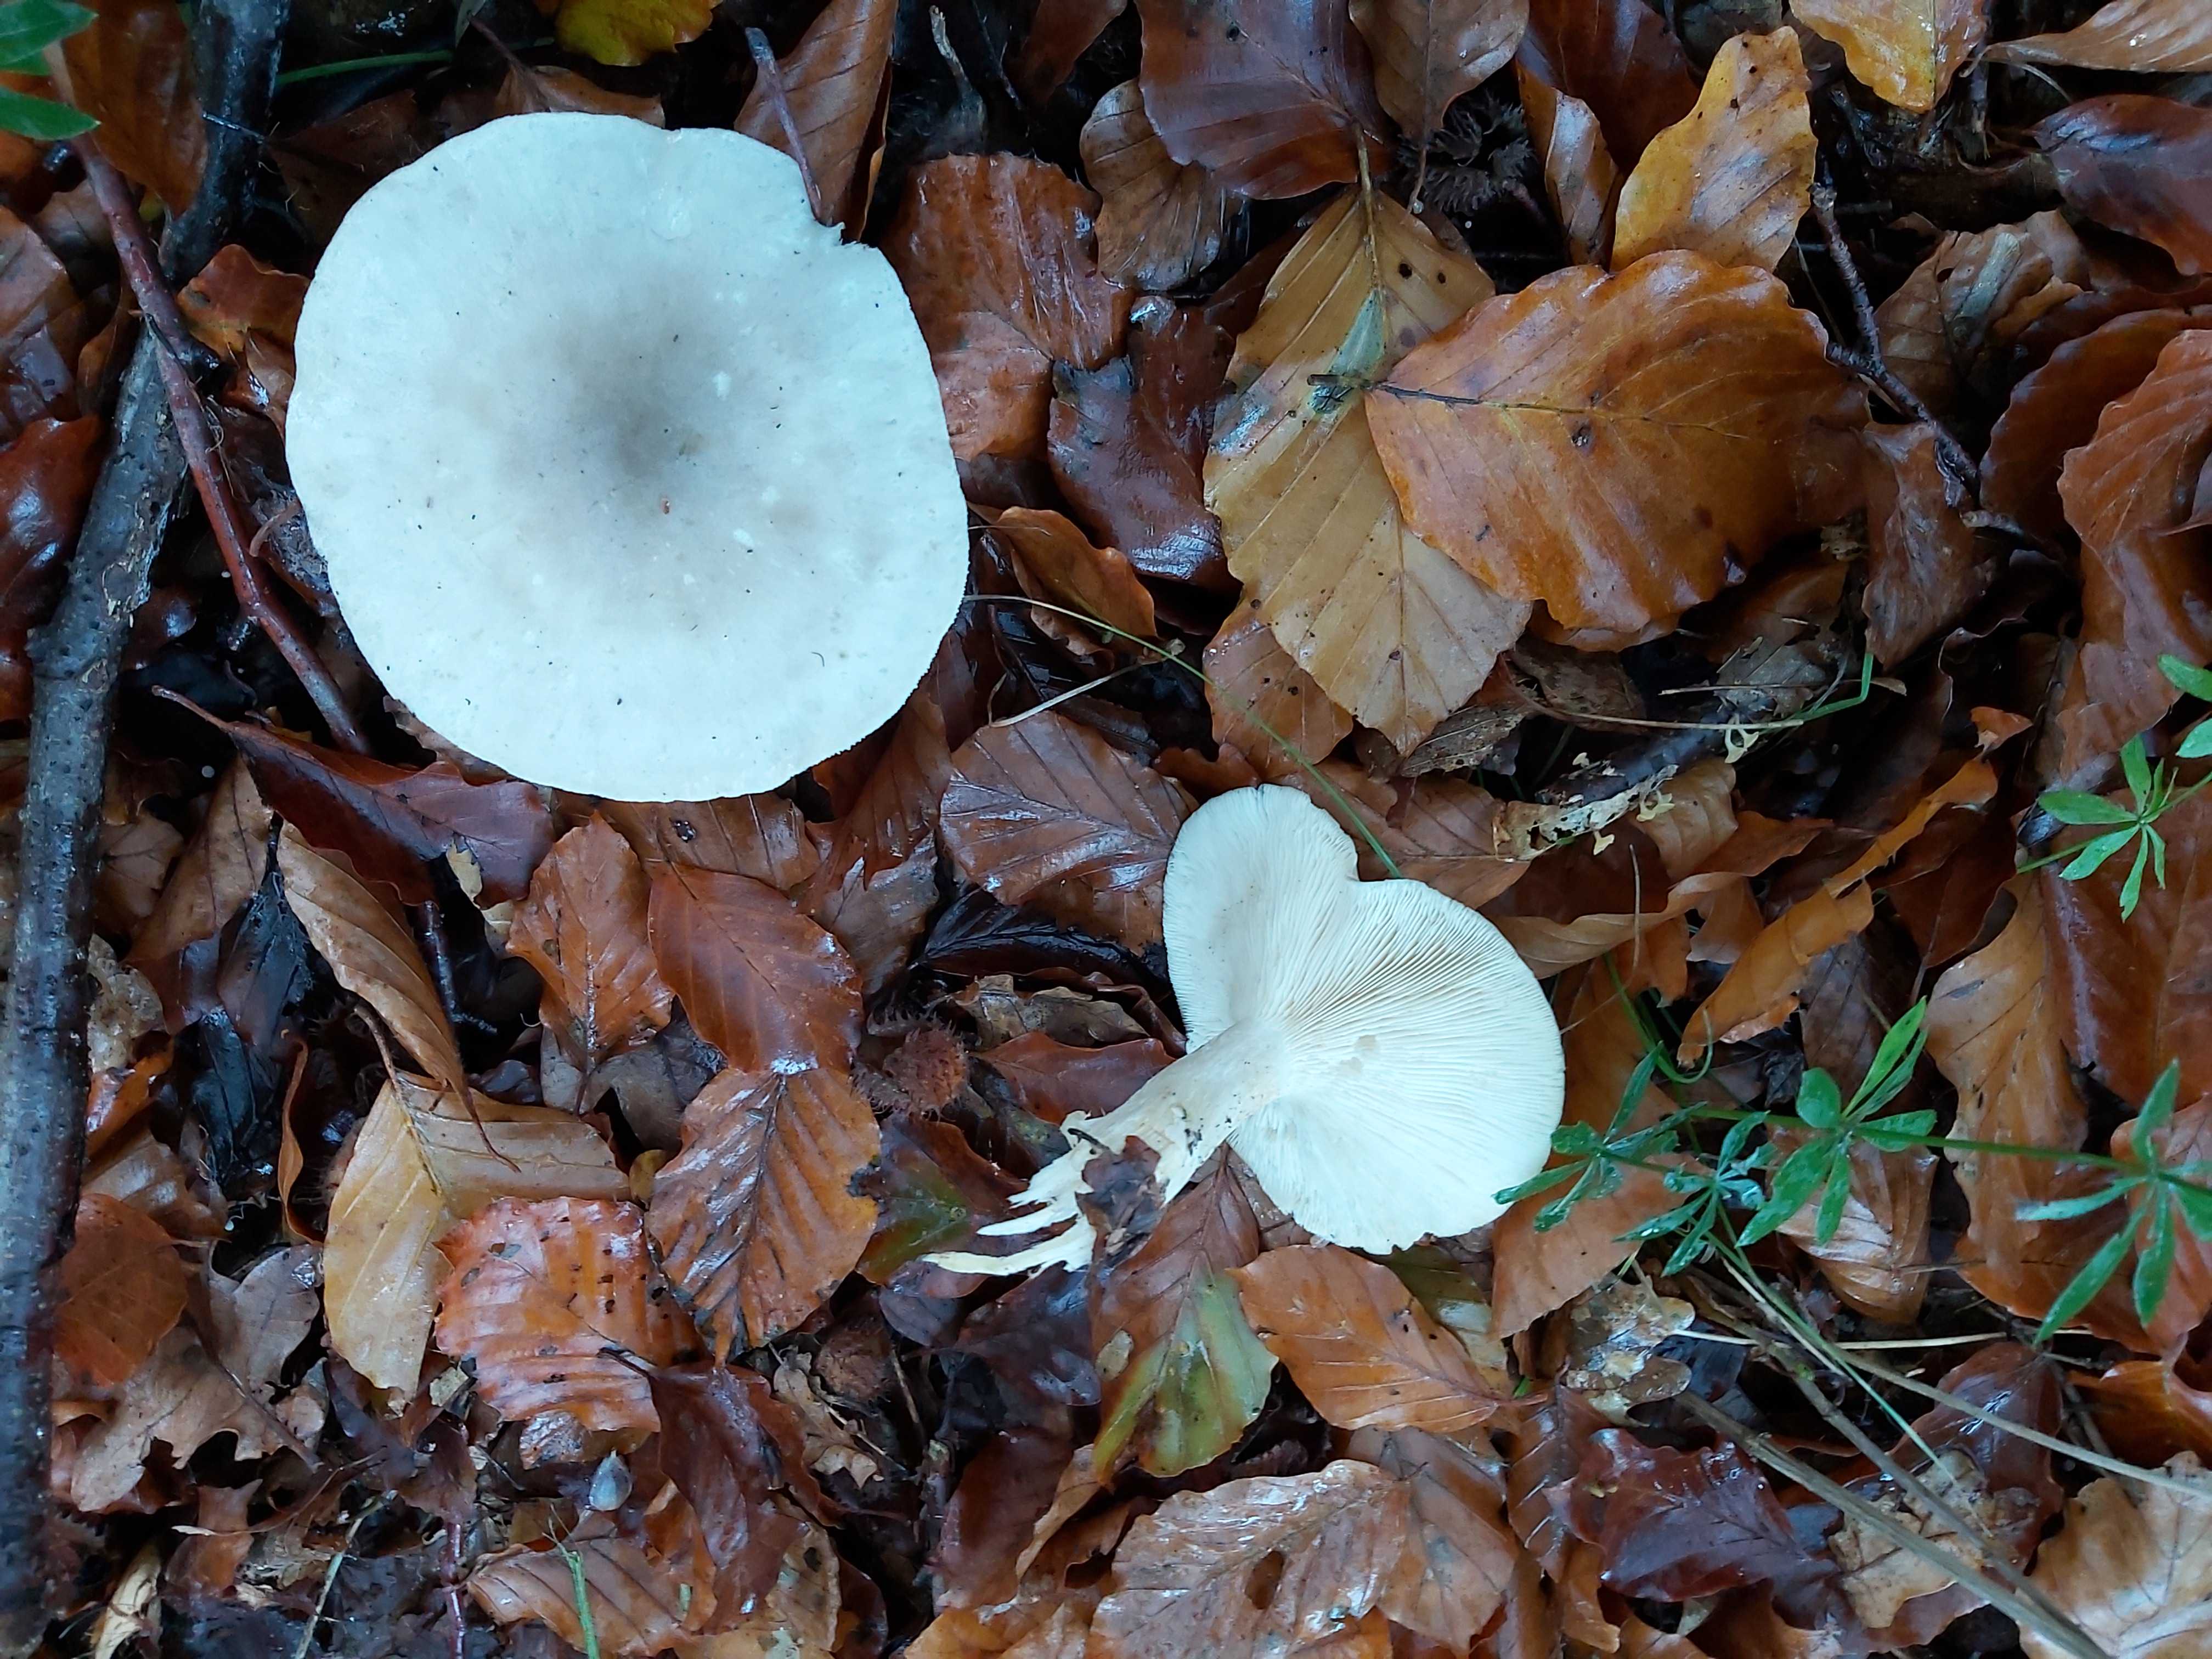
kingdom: Fungi
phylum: Basidiomycota
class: Agaricomycetes
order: Agaricales
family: Tricholomataceae
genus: Clitocybe
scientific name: Clitocybe nebularis
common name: tåge-tragthat
